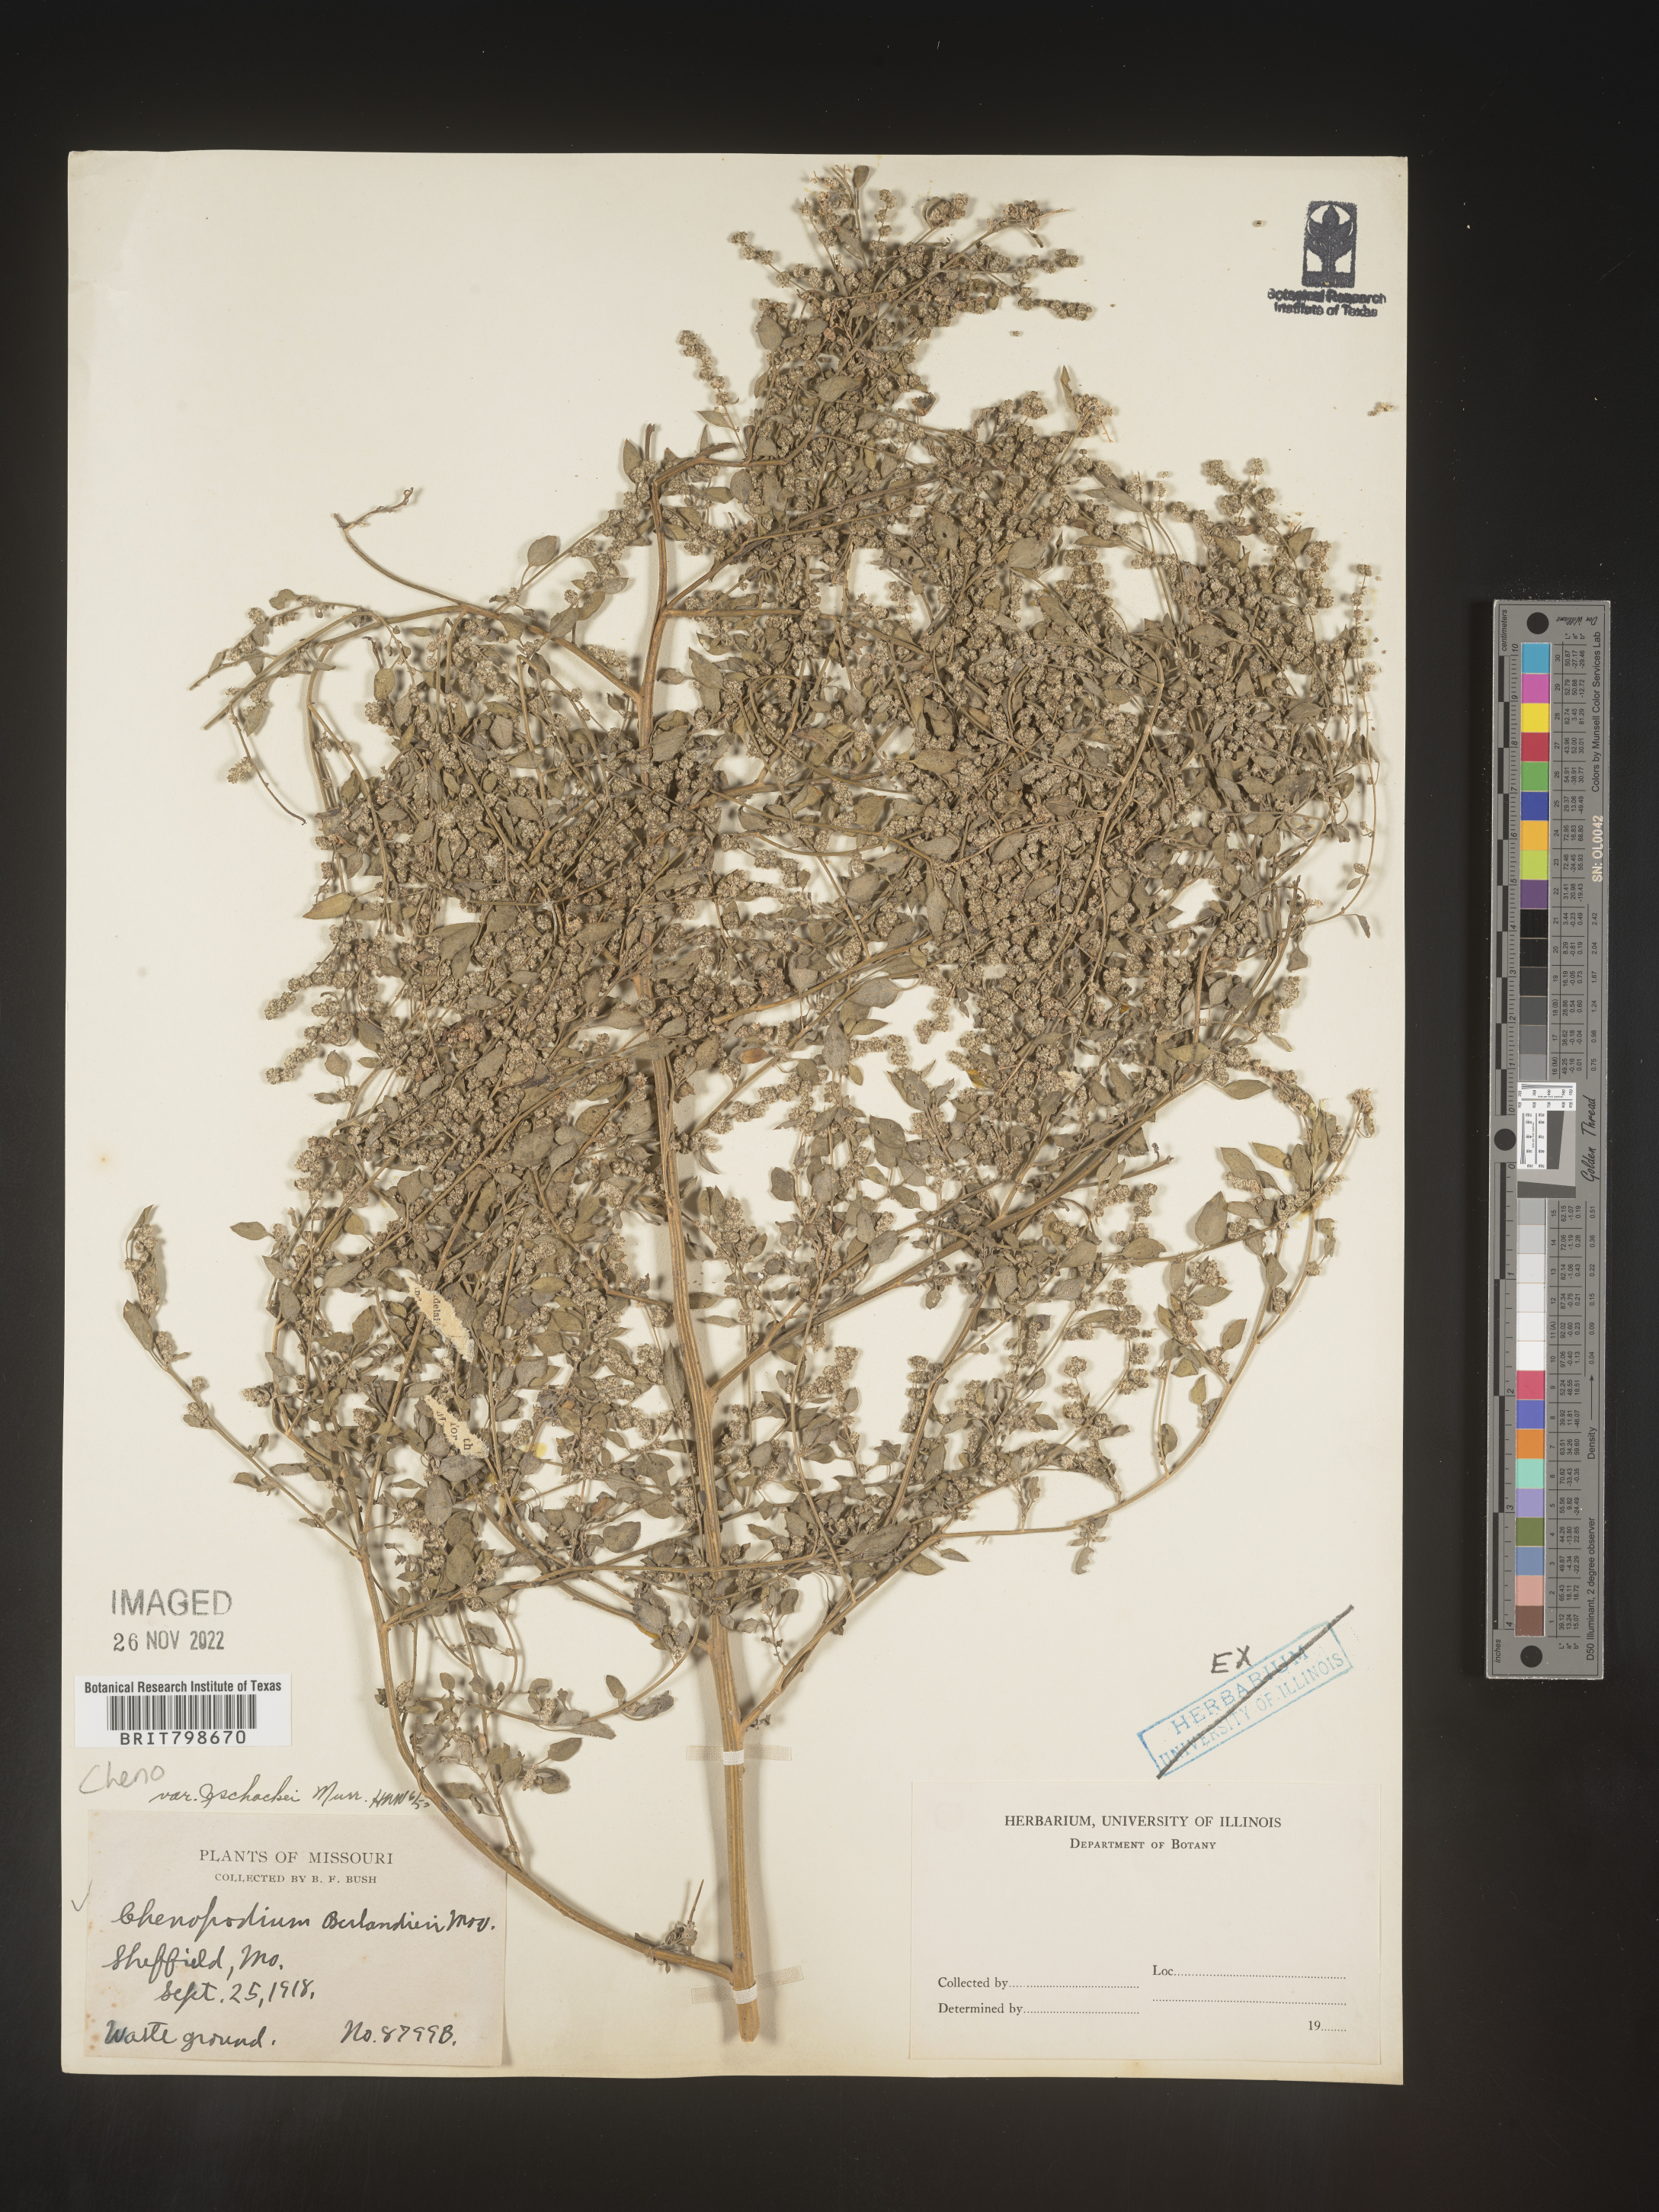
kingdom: Plantae
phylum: Tracheophyta
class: Magnoliopsida
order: Caryophyllales
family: Amaranthaceae
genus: Chenopodium
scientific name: Chenopodium berlandieri
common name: Pit-seed goosefoot
